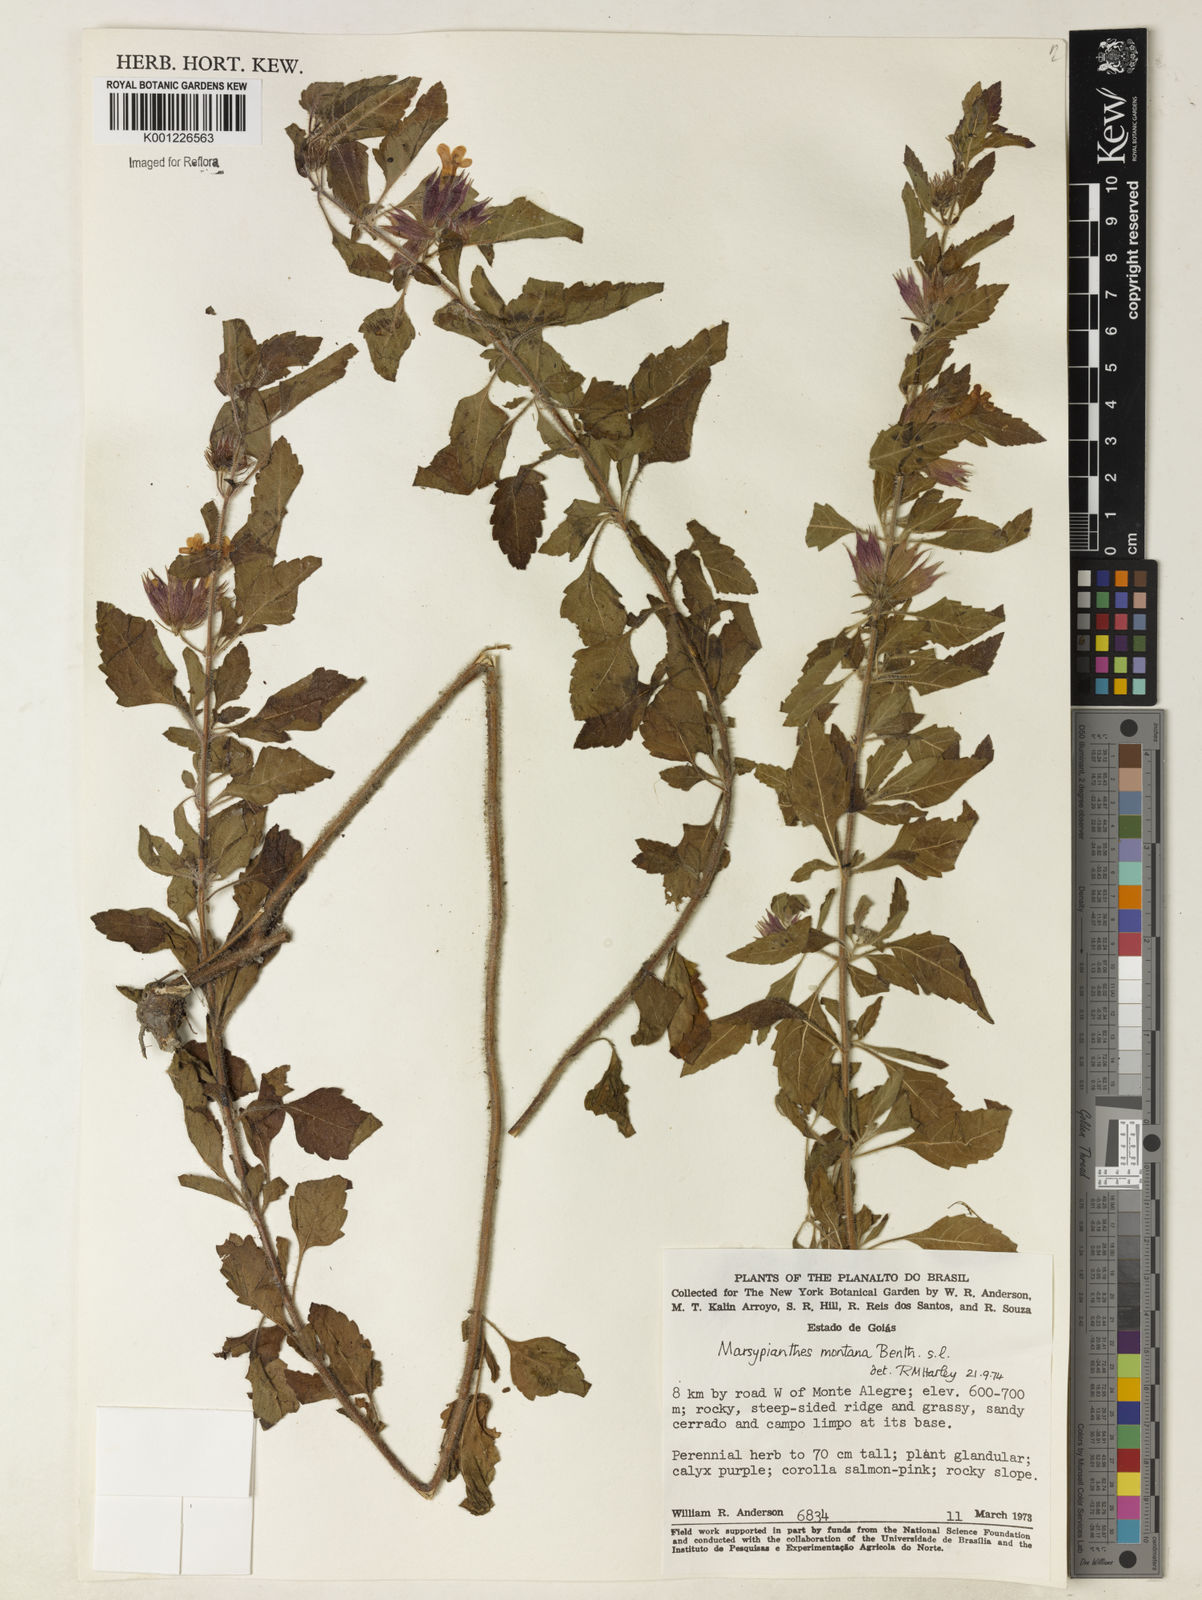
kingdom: Plantae
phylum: Tracheophyta
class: Magnoliopsida
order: Lamiales
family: Lamiaceae
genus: Marsypianthes
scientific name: Marsypianthes burchellii
